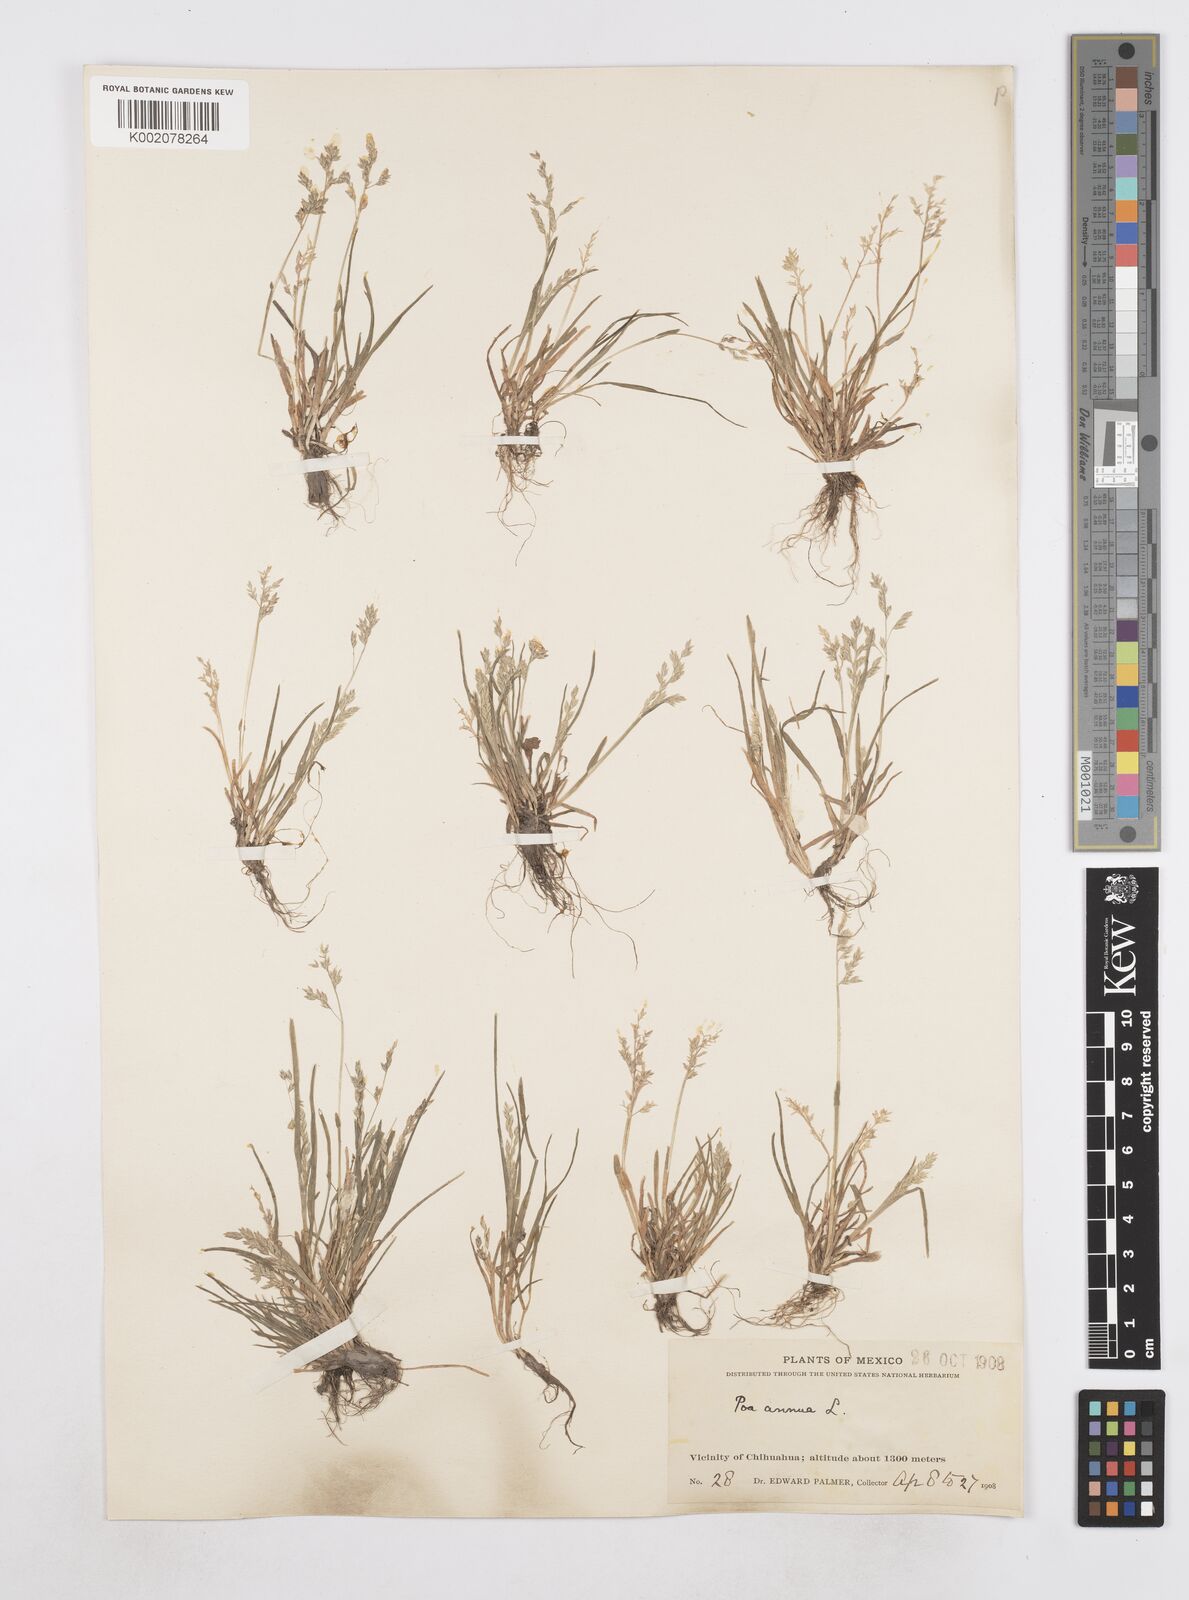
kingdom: Plantae
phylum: Tracheophyta
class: Liliopsida
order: Poales
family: Poaceae
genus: Poa
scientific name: Poa annua
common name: Annual bluegrass
